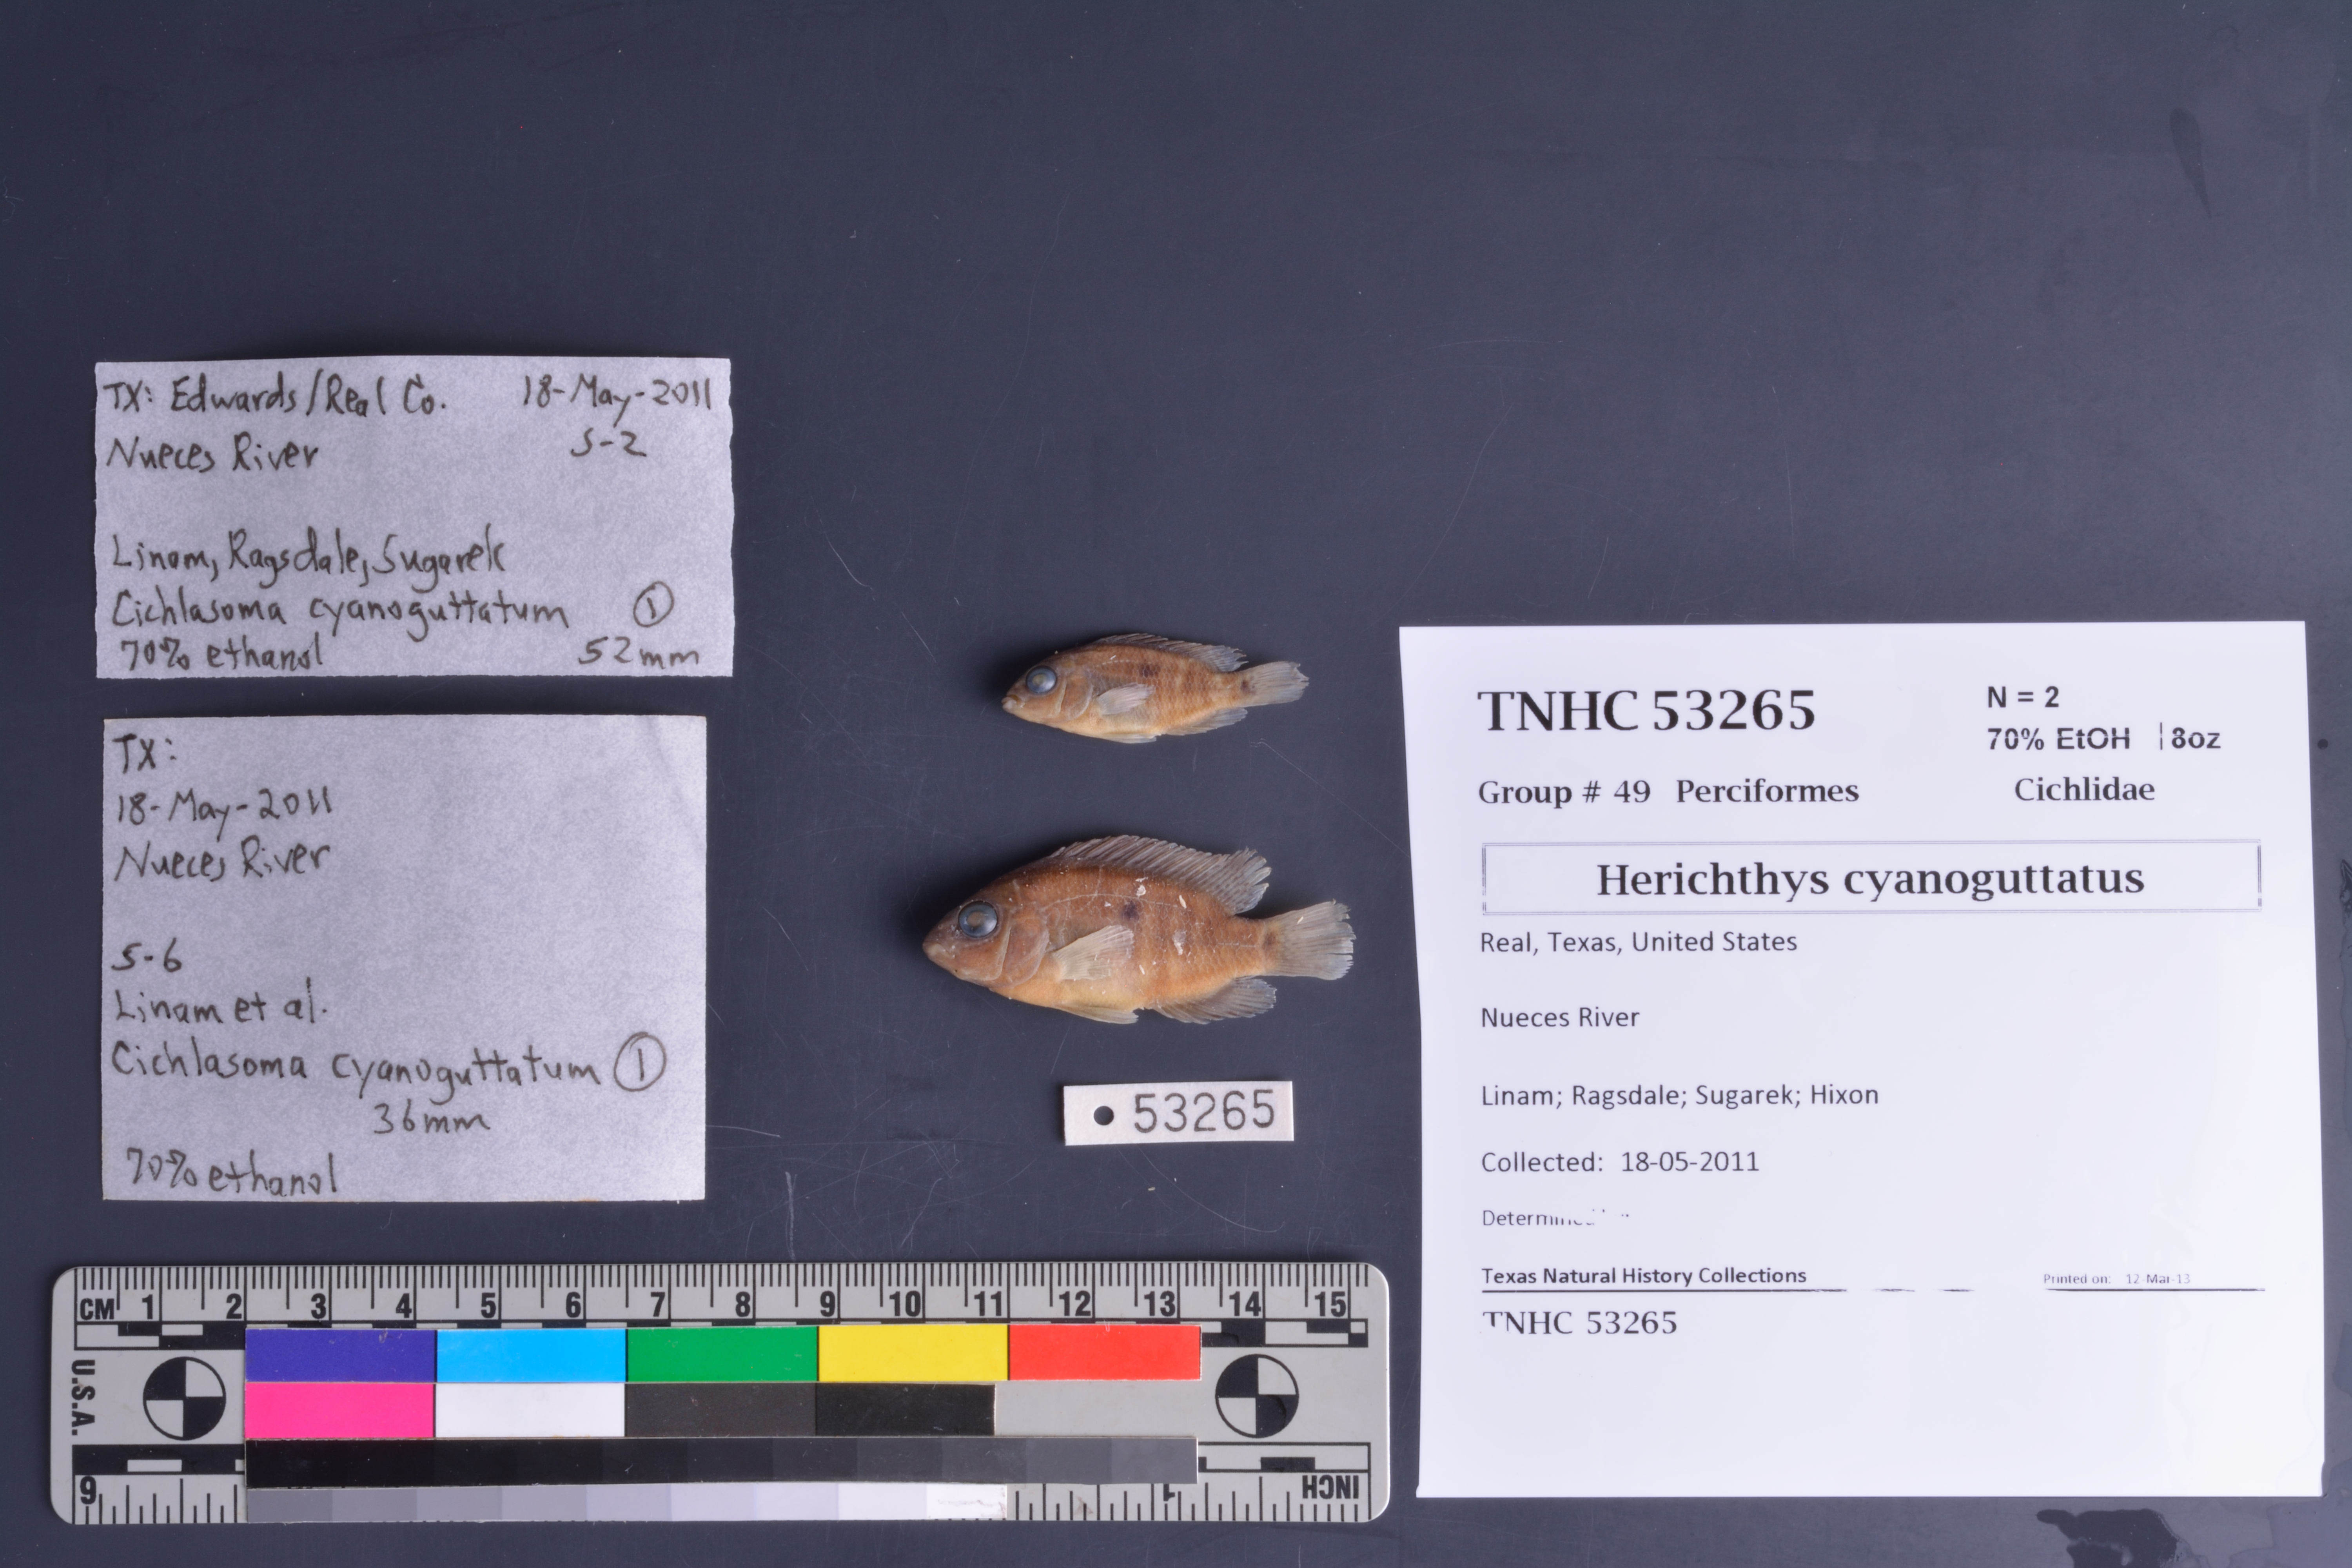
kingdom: Animalia
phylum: Chordata
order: Perciformes
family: Cichlidae
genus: Herichthys
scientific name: Herichthys cyanoguttatus
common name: Rio grande cichlid
